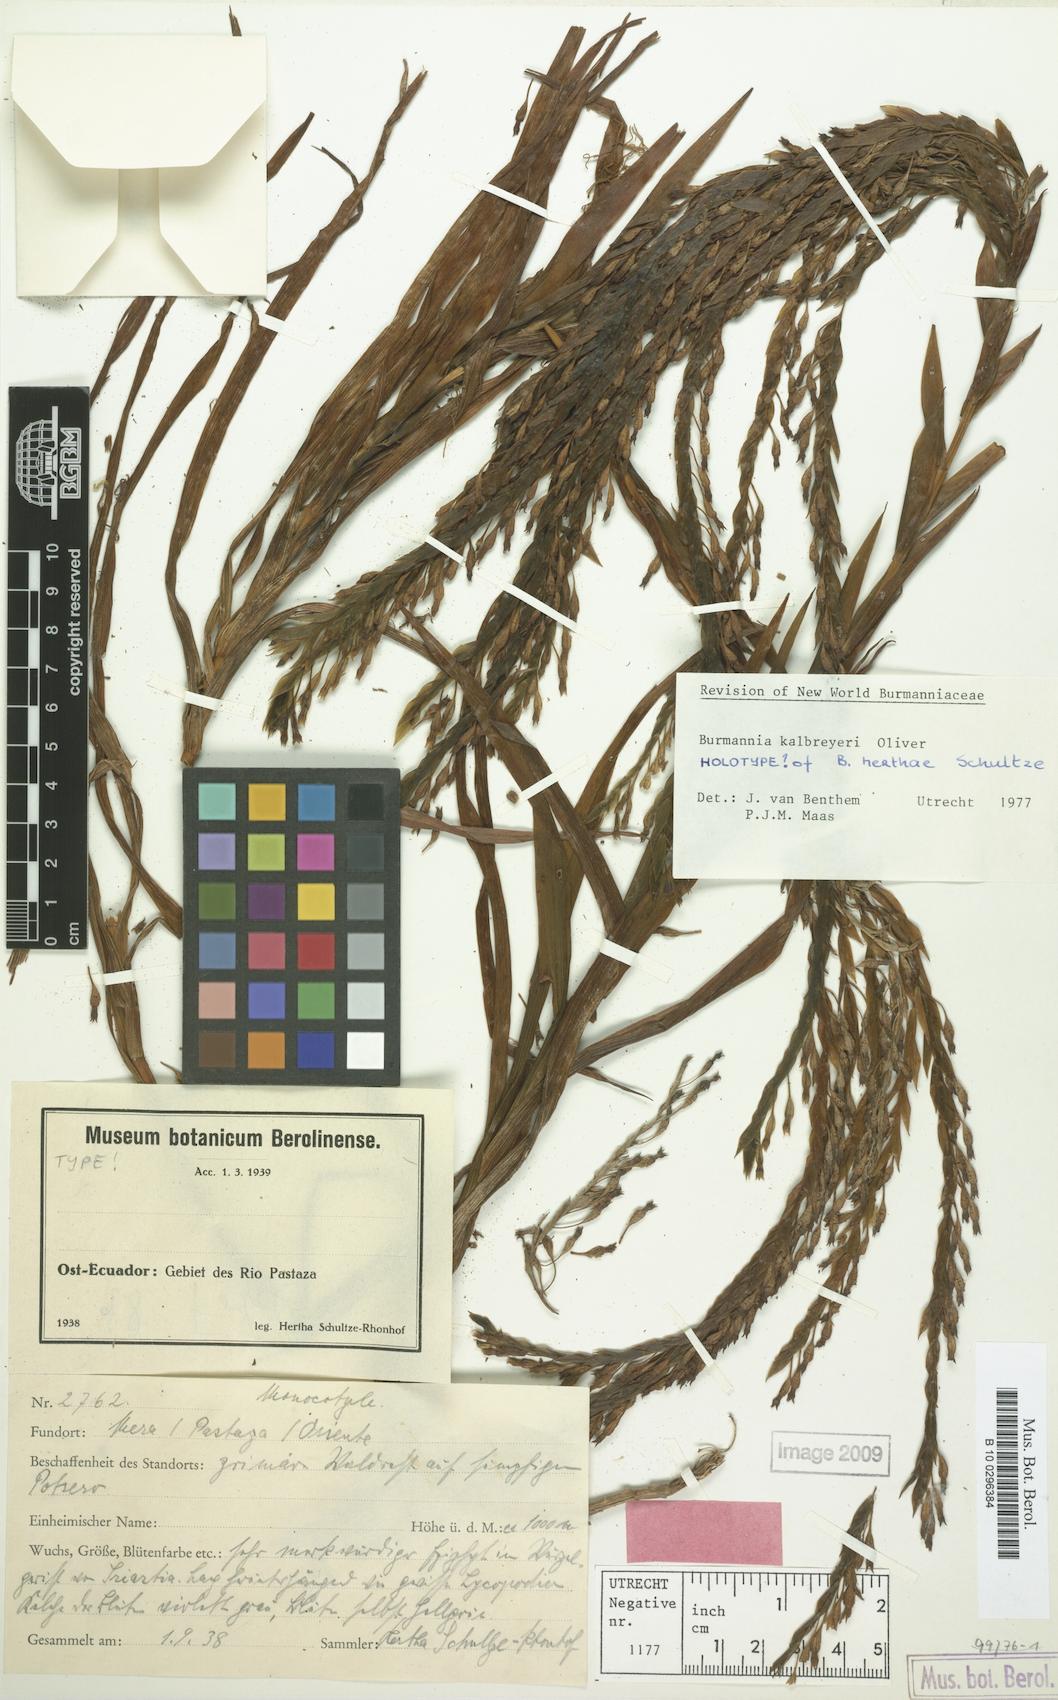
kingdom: Plantae
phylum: Tracheophyta
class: Liliopsida
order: Dioscoreales
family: Burmanniaceae
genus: Burmannia
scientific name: Burmannia kalbreyeri
